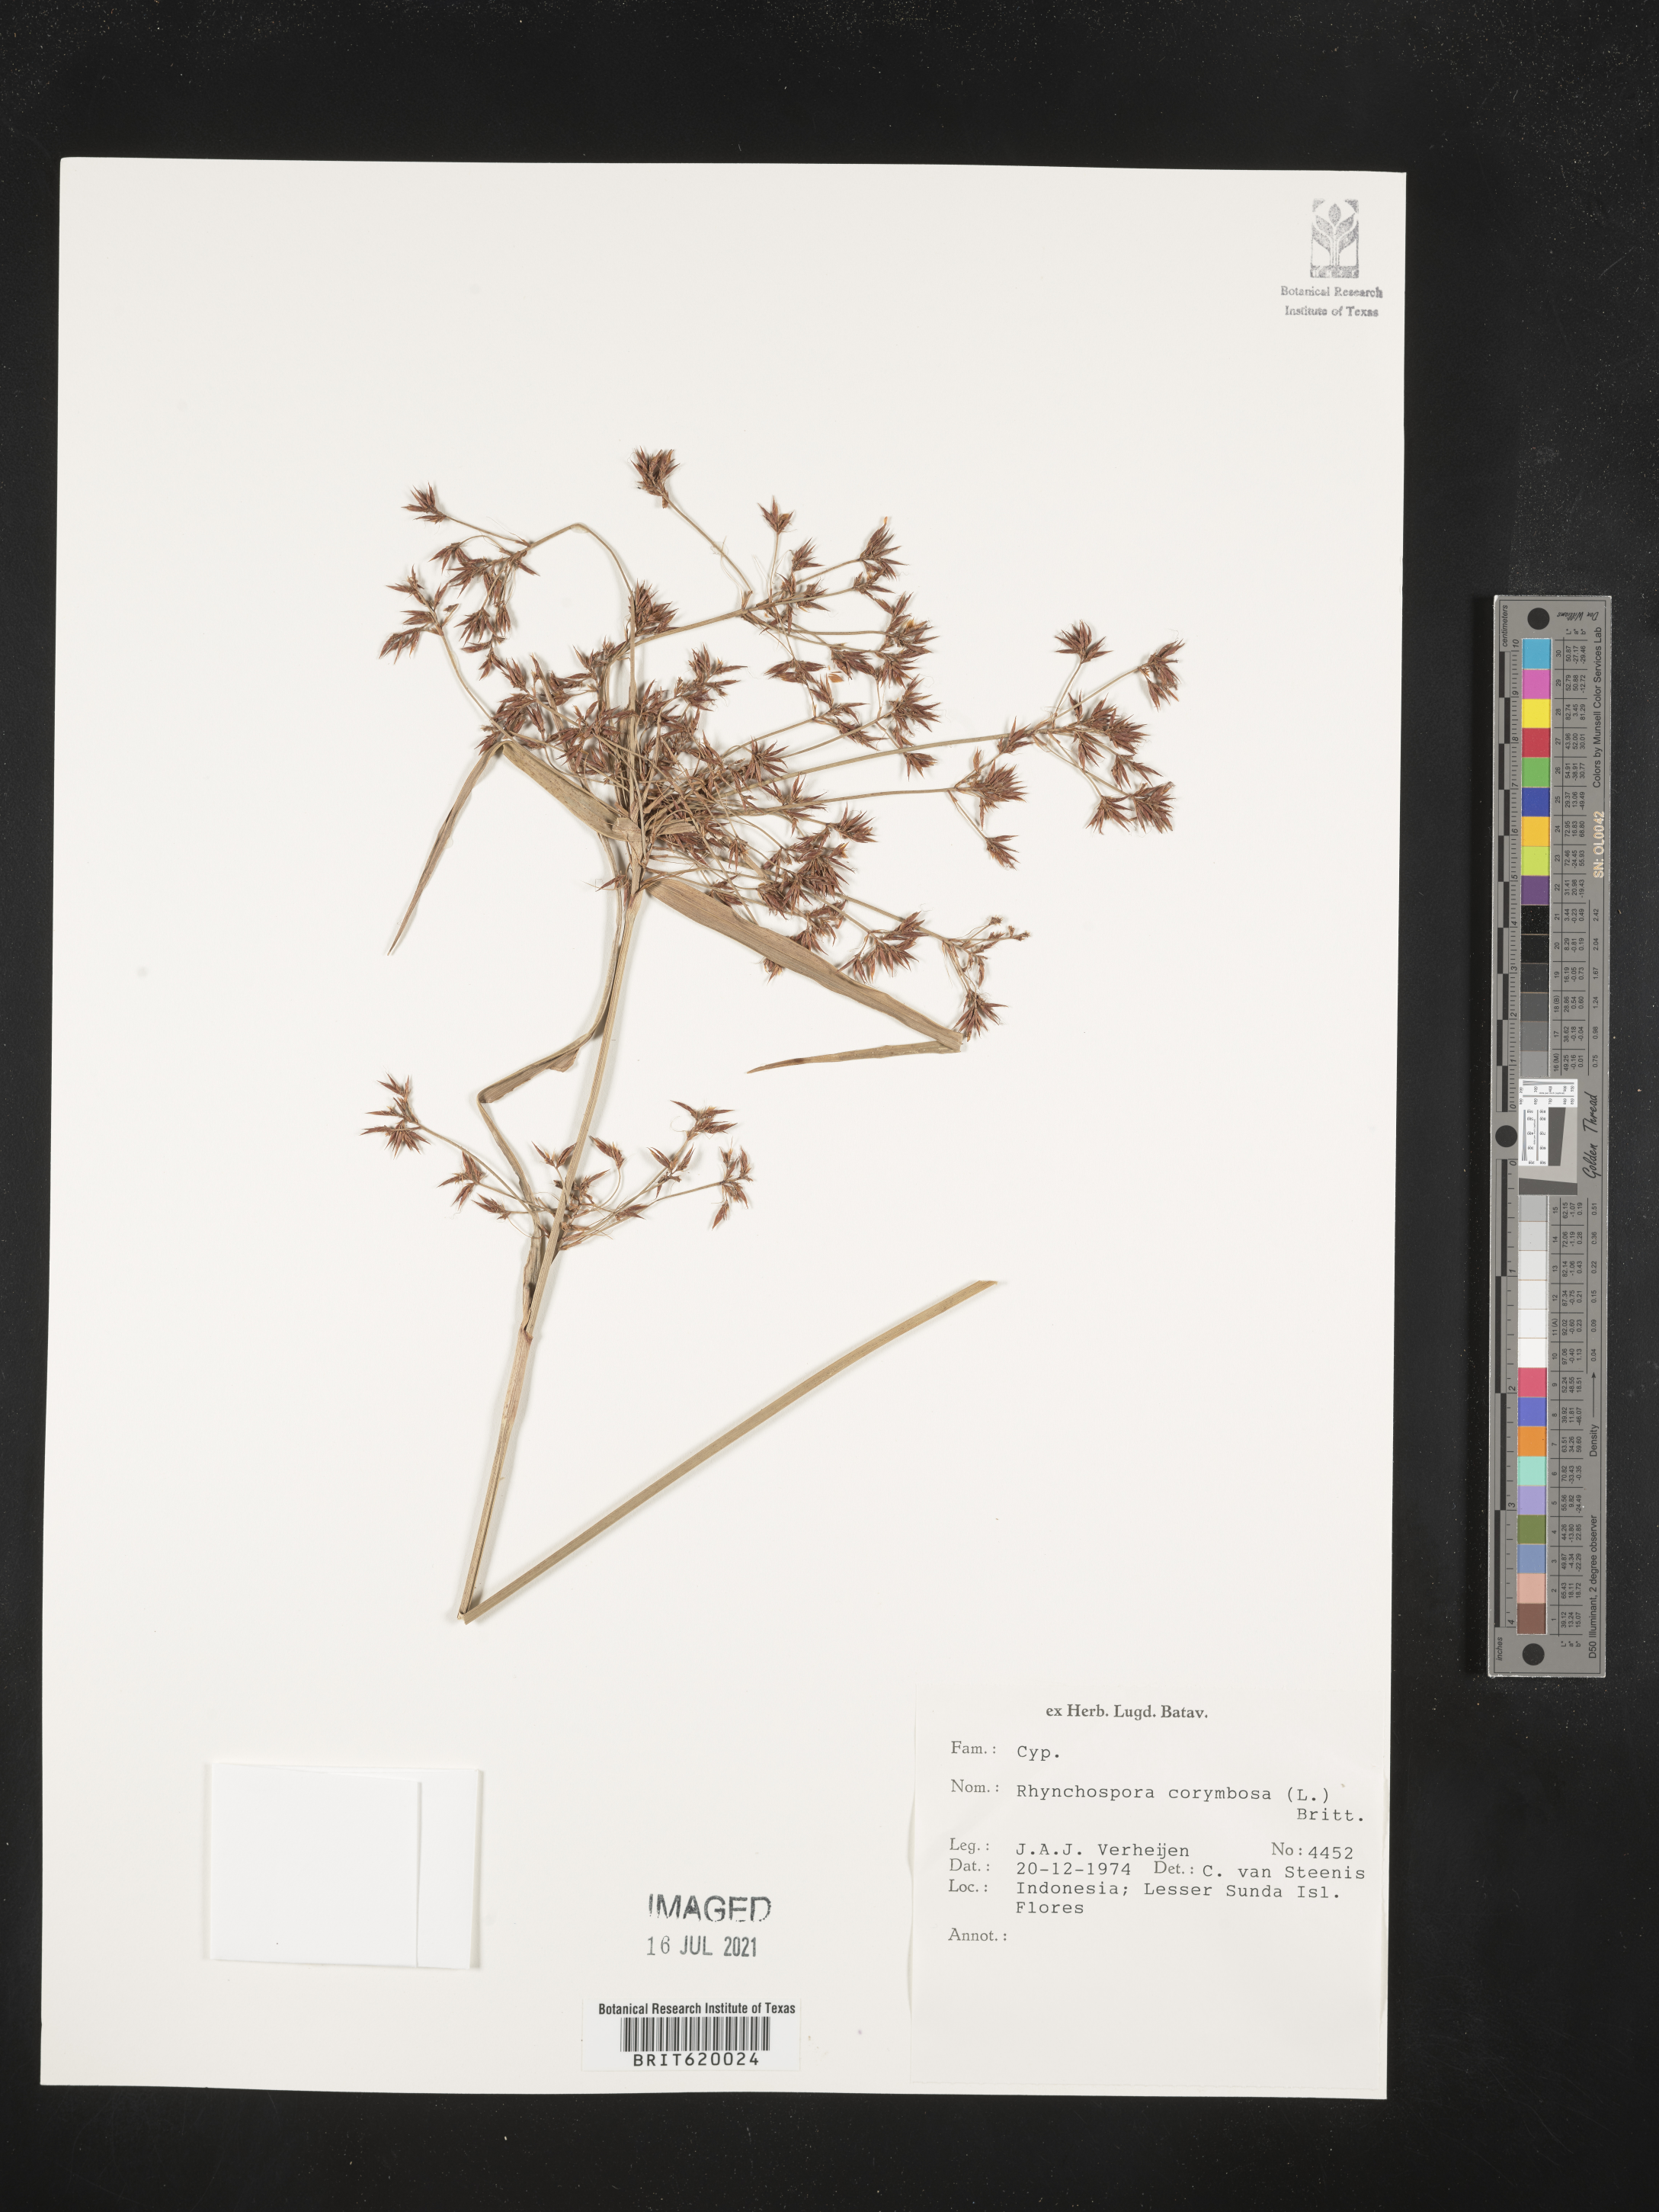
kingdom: Plantae
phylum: Tracheophyta
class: Liliopsida
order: Poales
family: Cyperaceae
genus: Rhynchospora
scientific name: Rhynchospora corymbosa
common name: Golden beak sedge
